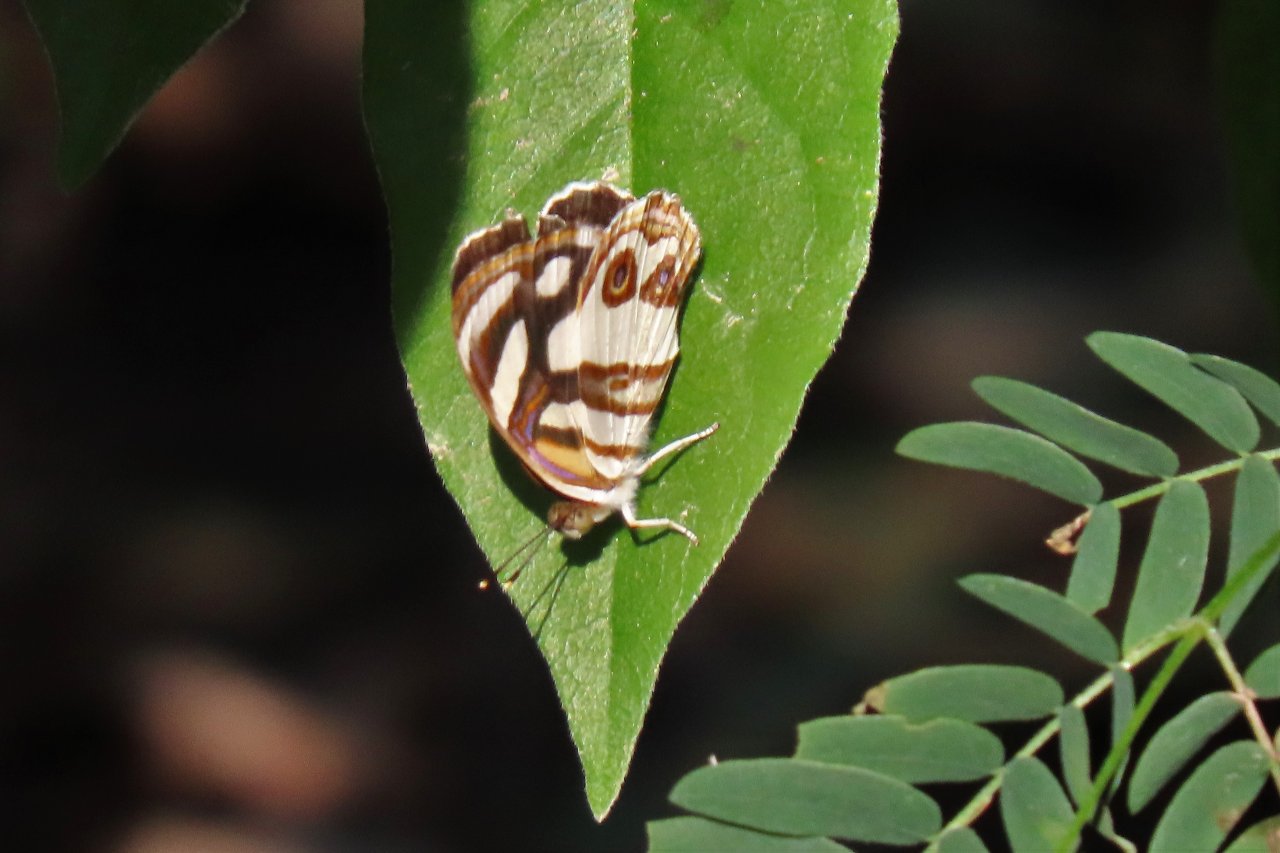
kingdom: Animalia
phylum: Arthropoda
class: Insecta
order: Lepidoptera
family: Nymphalidae
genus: Dynamine
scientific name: Dynamine dyonis
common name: Blue-eyed Sailor
